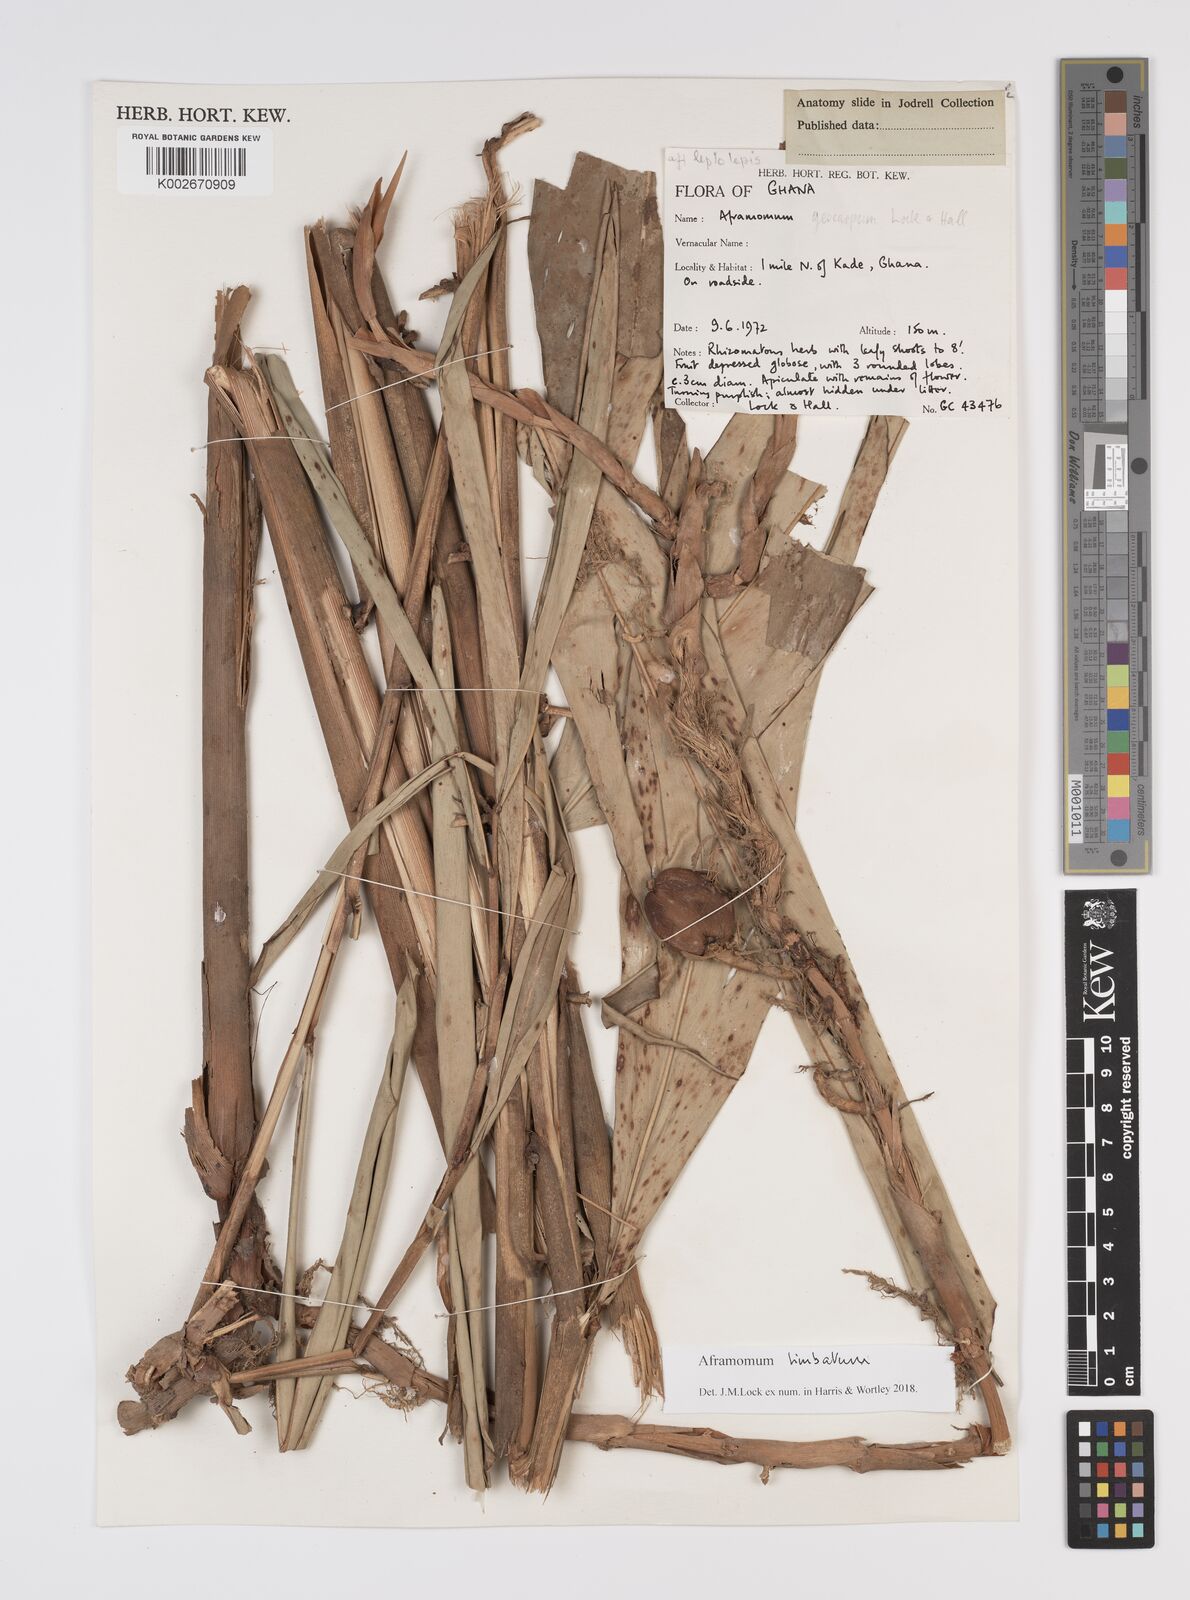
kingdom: Plantae
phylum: Tracheophyta
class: Liliopsida
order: Zingiberales
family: Zingiberaceae
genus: Aframomum
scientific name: Aframomum limbatum
